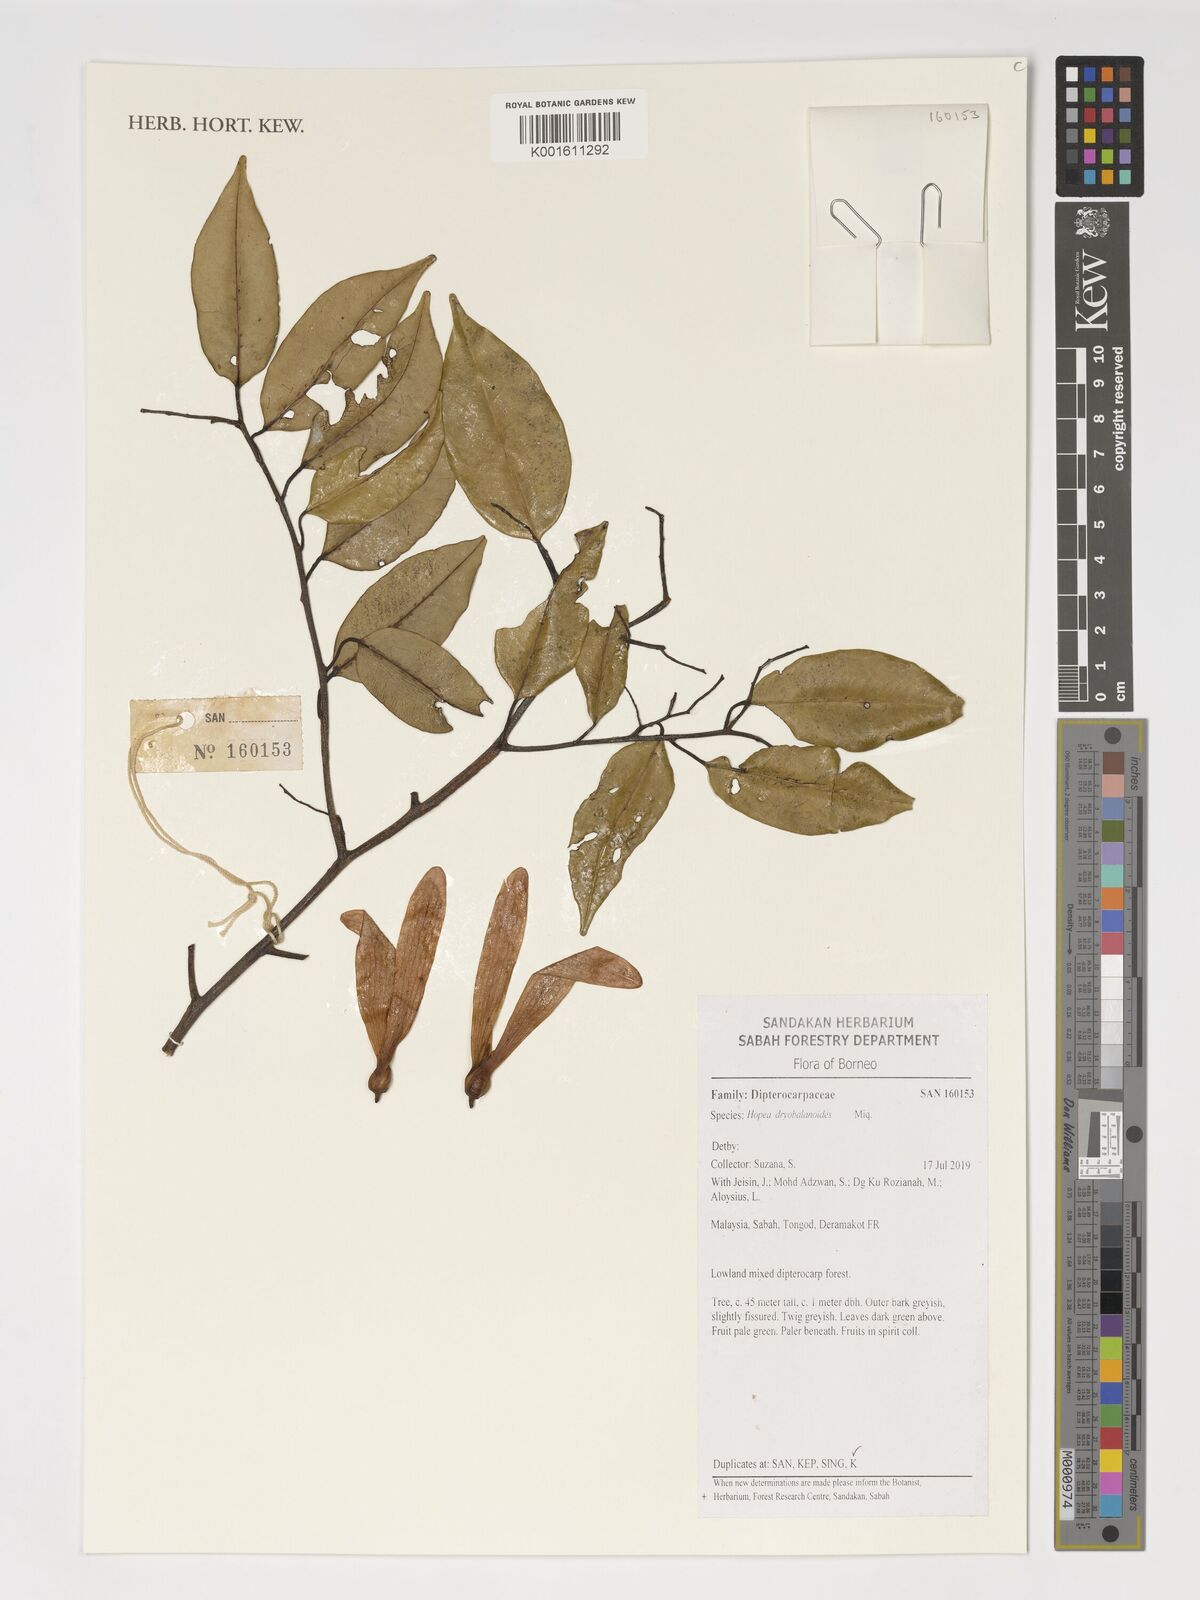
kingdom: Plantae
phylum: Tracheophyta
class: Magnoliopsida
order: Malvales
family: Dipterocarpaceae
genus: Hopea
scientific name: Hopea dryobalanoides
